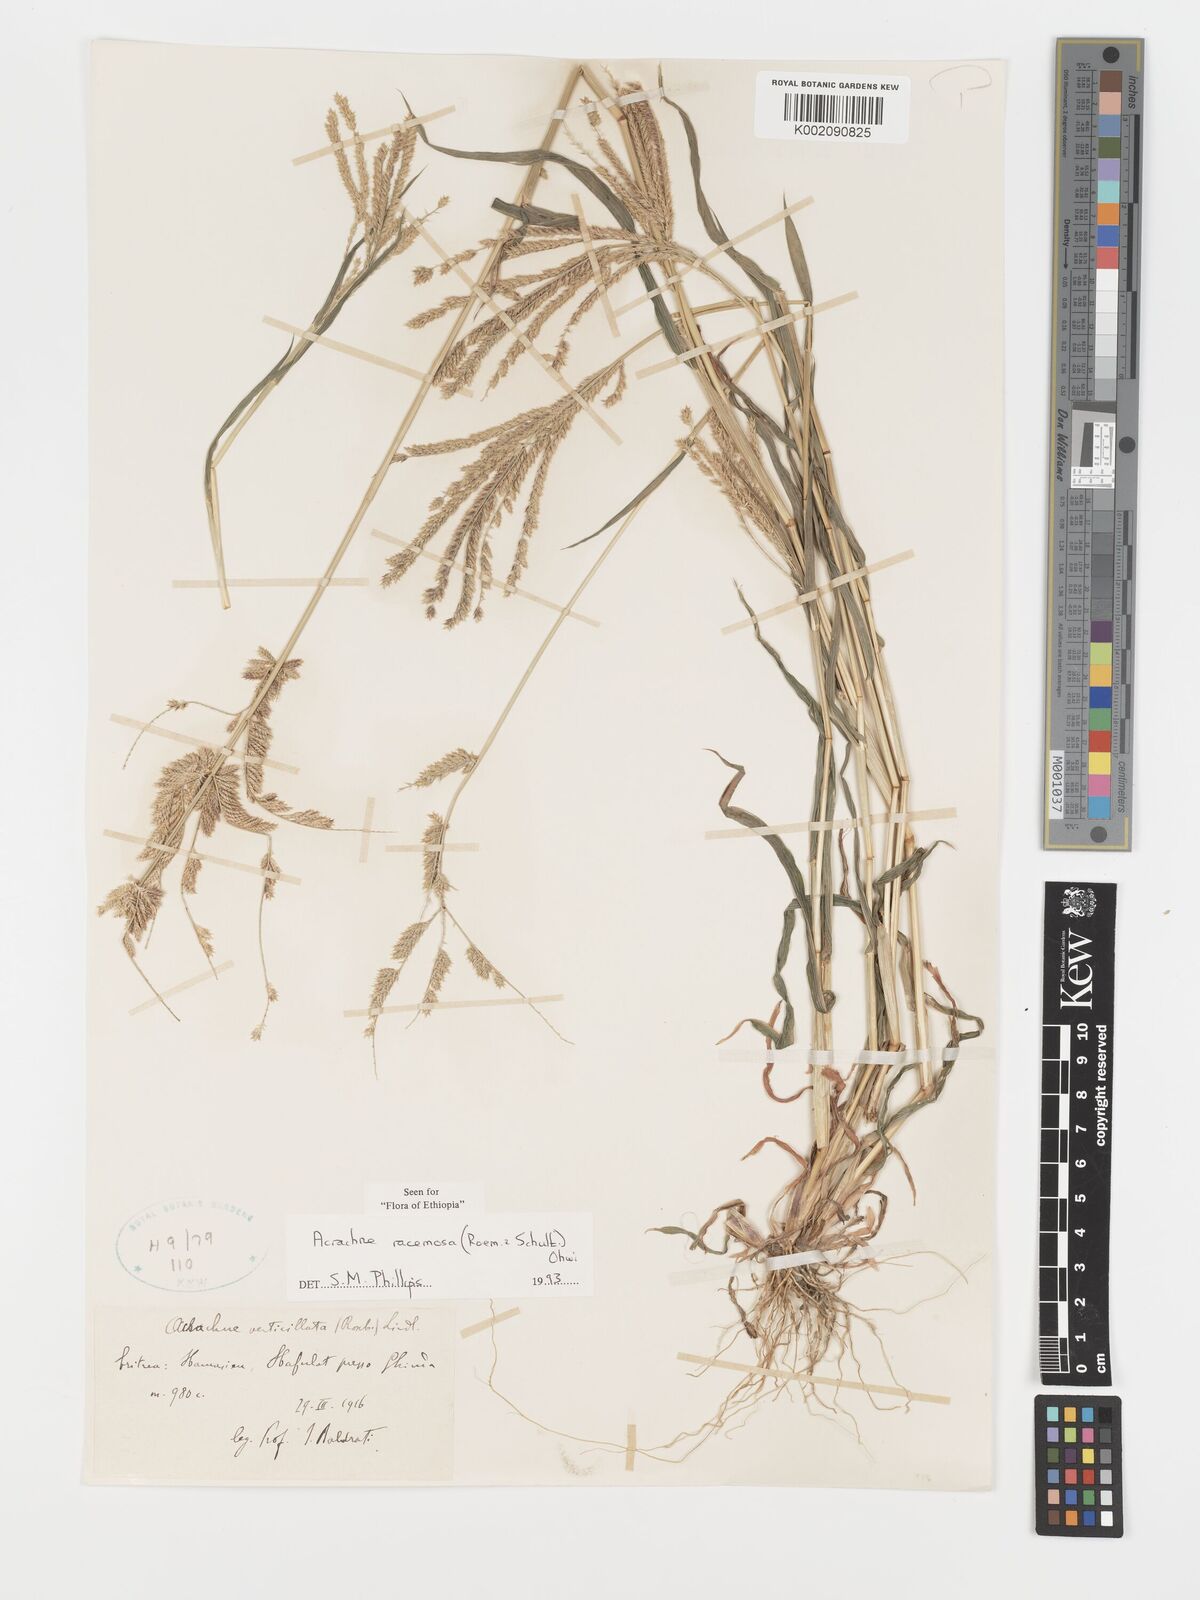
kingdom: Plantae
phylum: Tracheophyta
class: Liliopsida
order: Poales
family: Poaceae
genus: Acrachne
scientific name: Acrachne racemosa
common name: Goosegrass
